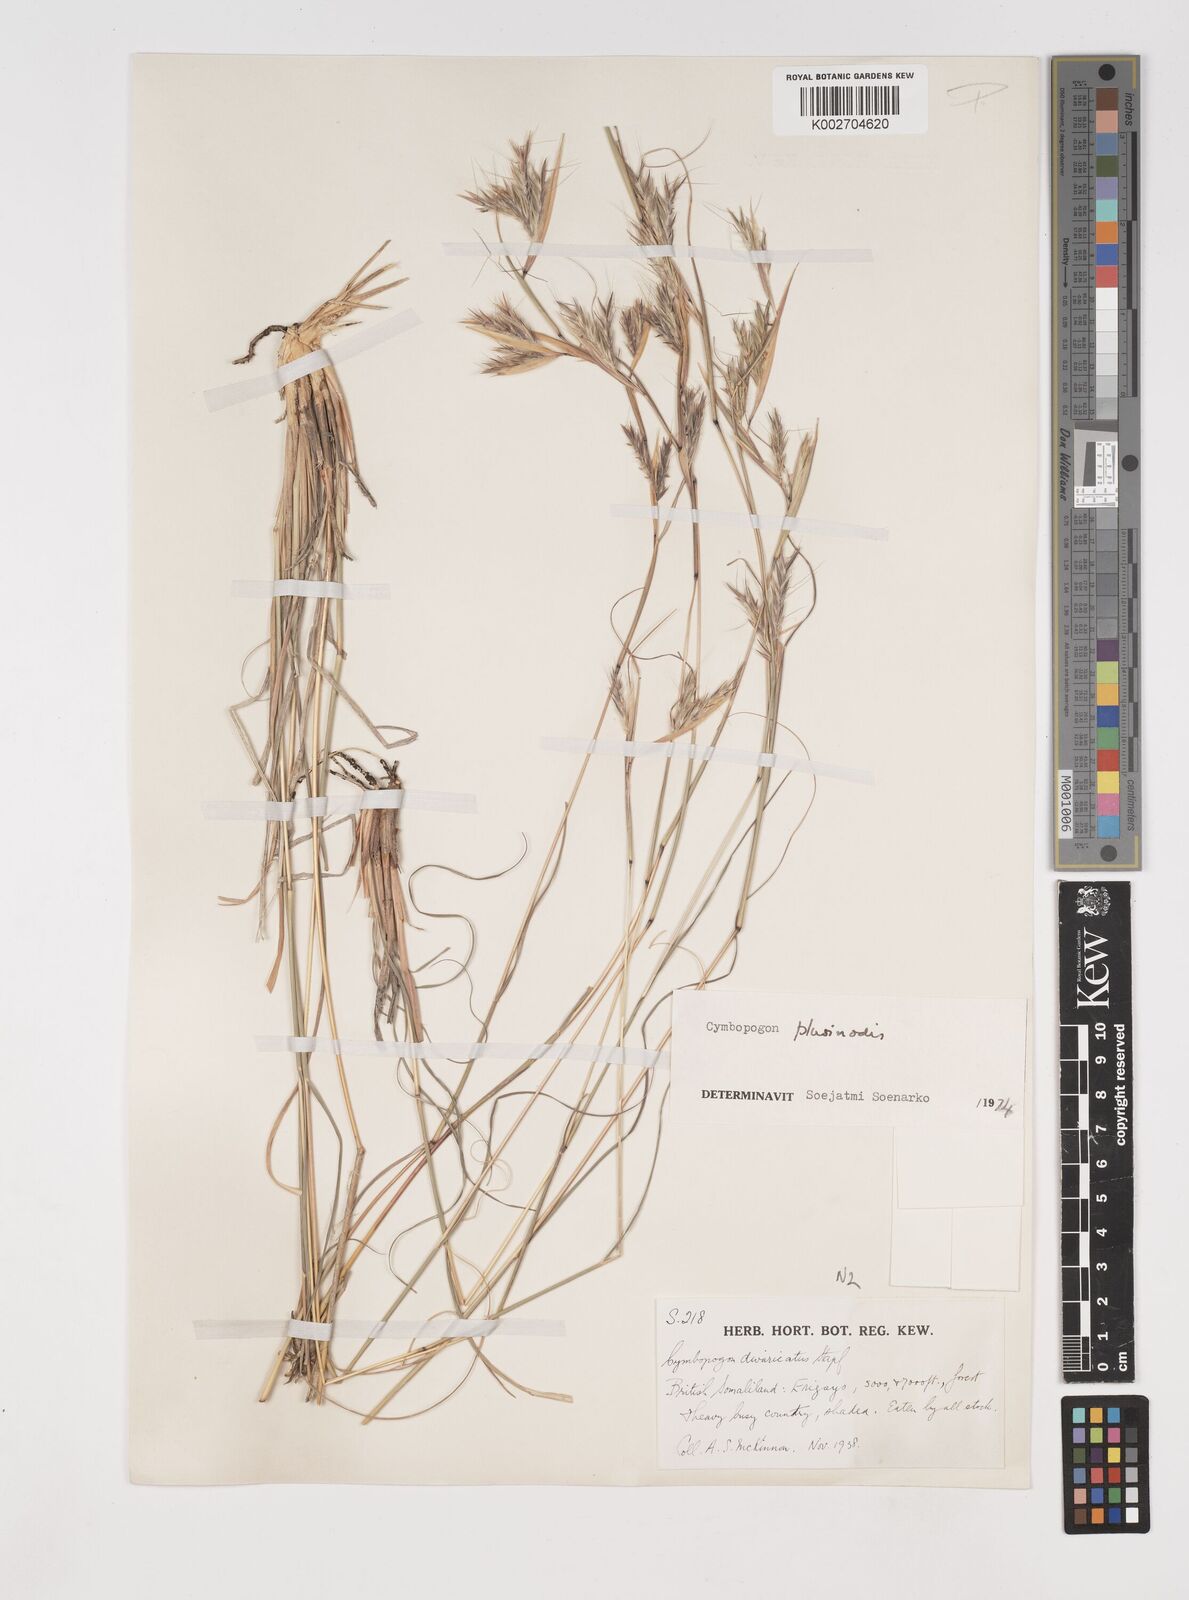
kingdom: Plantae
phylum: Tracheophyta
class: Liliopsida
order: Poales
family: Poaceae
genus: Cymbopogon
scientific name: Cymbopogon pospischilii
